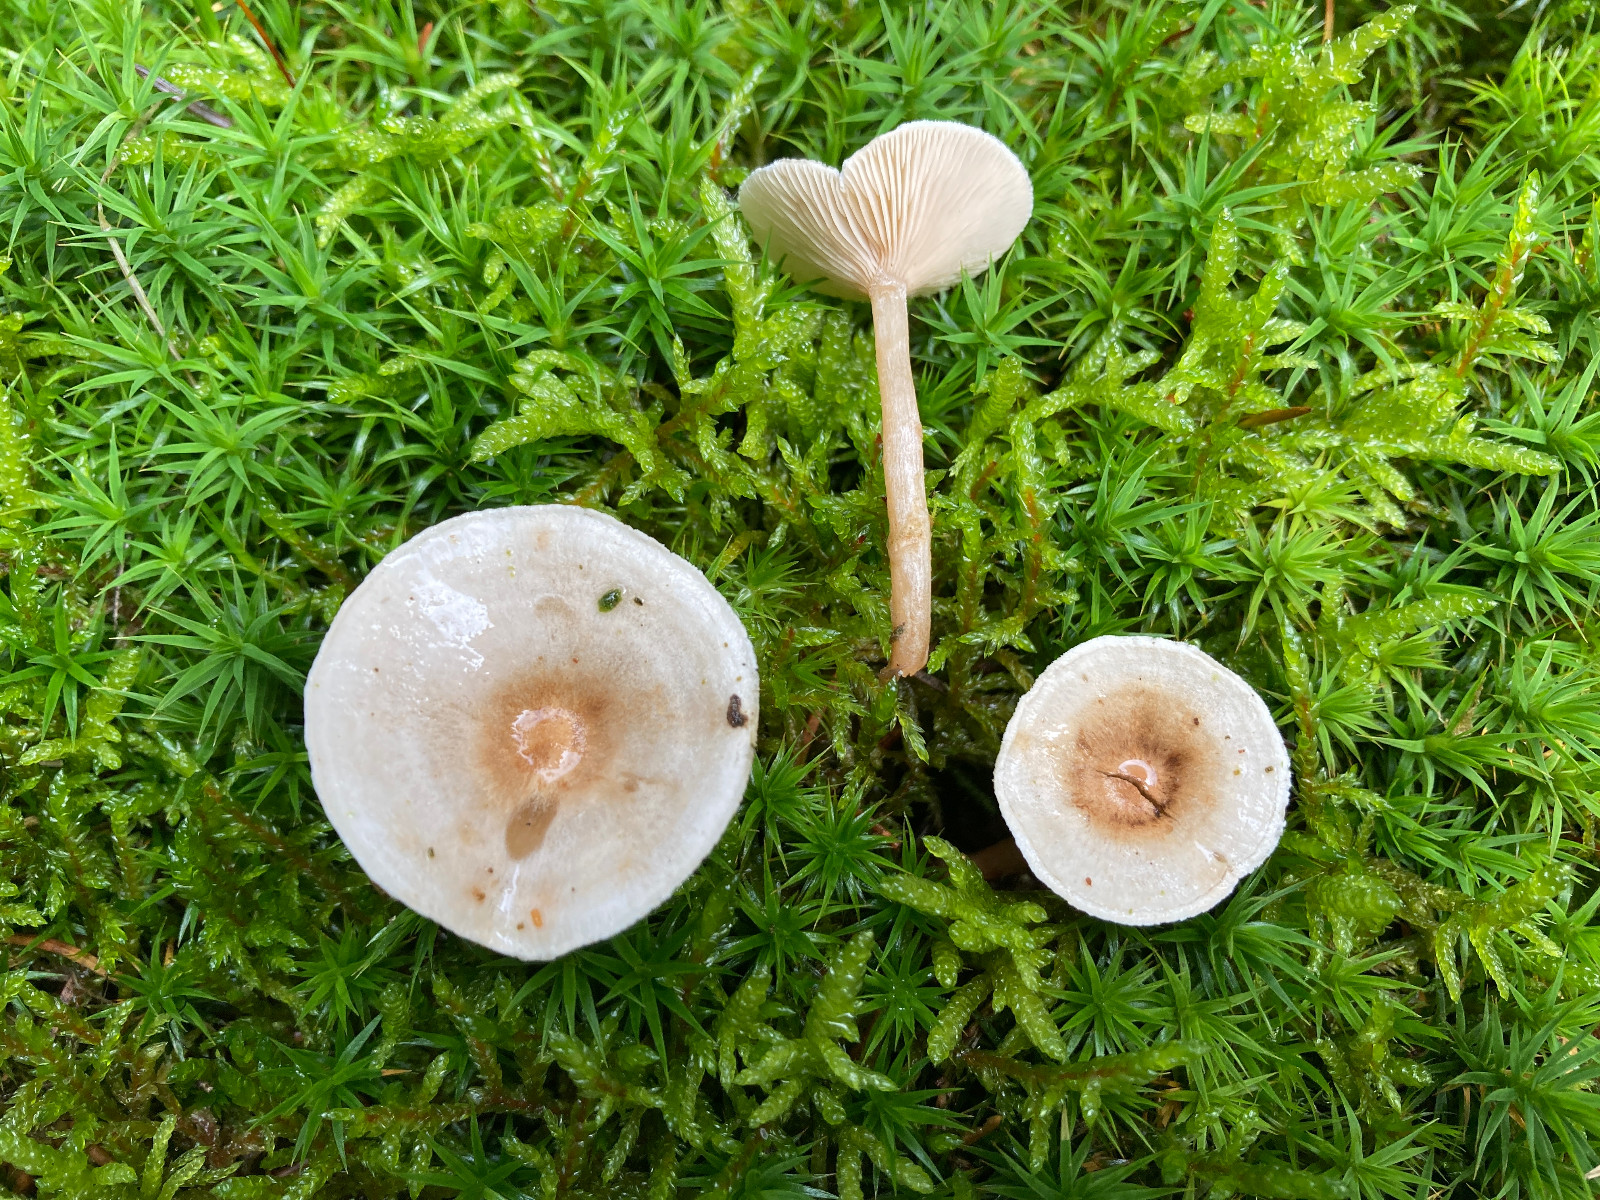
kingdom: Fungi
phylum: Basidiomycota
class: Agaricomycetes
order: Agaricales
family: Tricholomataceae
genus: Ripartites
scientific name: Ripartites tricholoma
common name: almindelig skæghat
